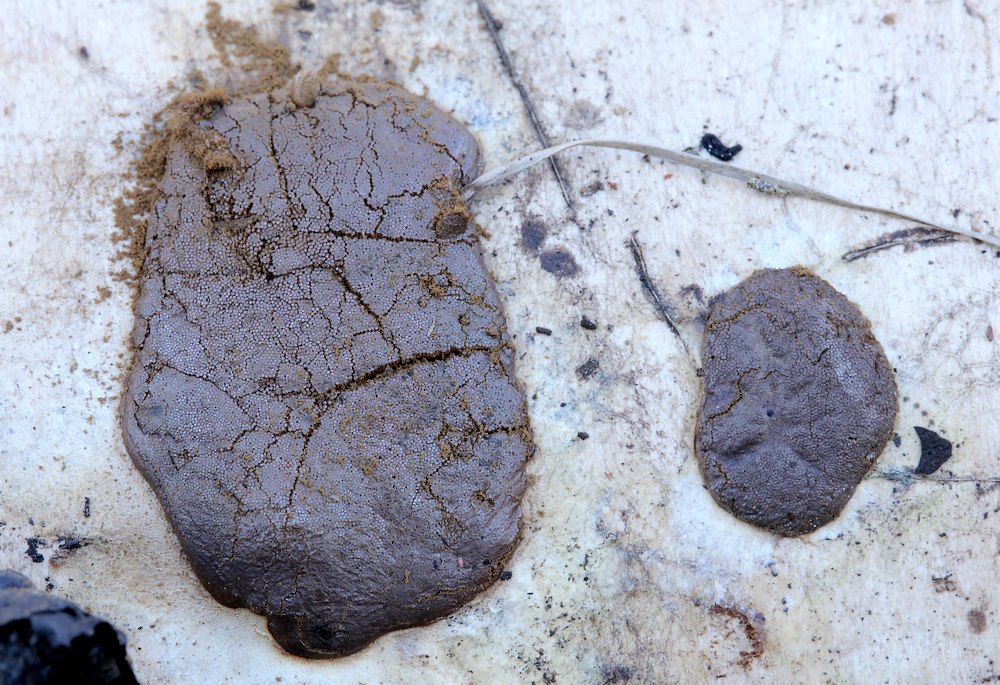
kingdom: Protozoa
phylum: Mycetozoa
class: Myxomycetes
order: Trichiales
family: Dictydiaethaliaceae
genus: Dictydiaethalium
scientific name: Dictydiaethalium plumbeum
